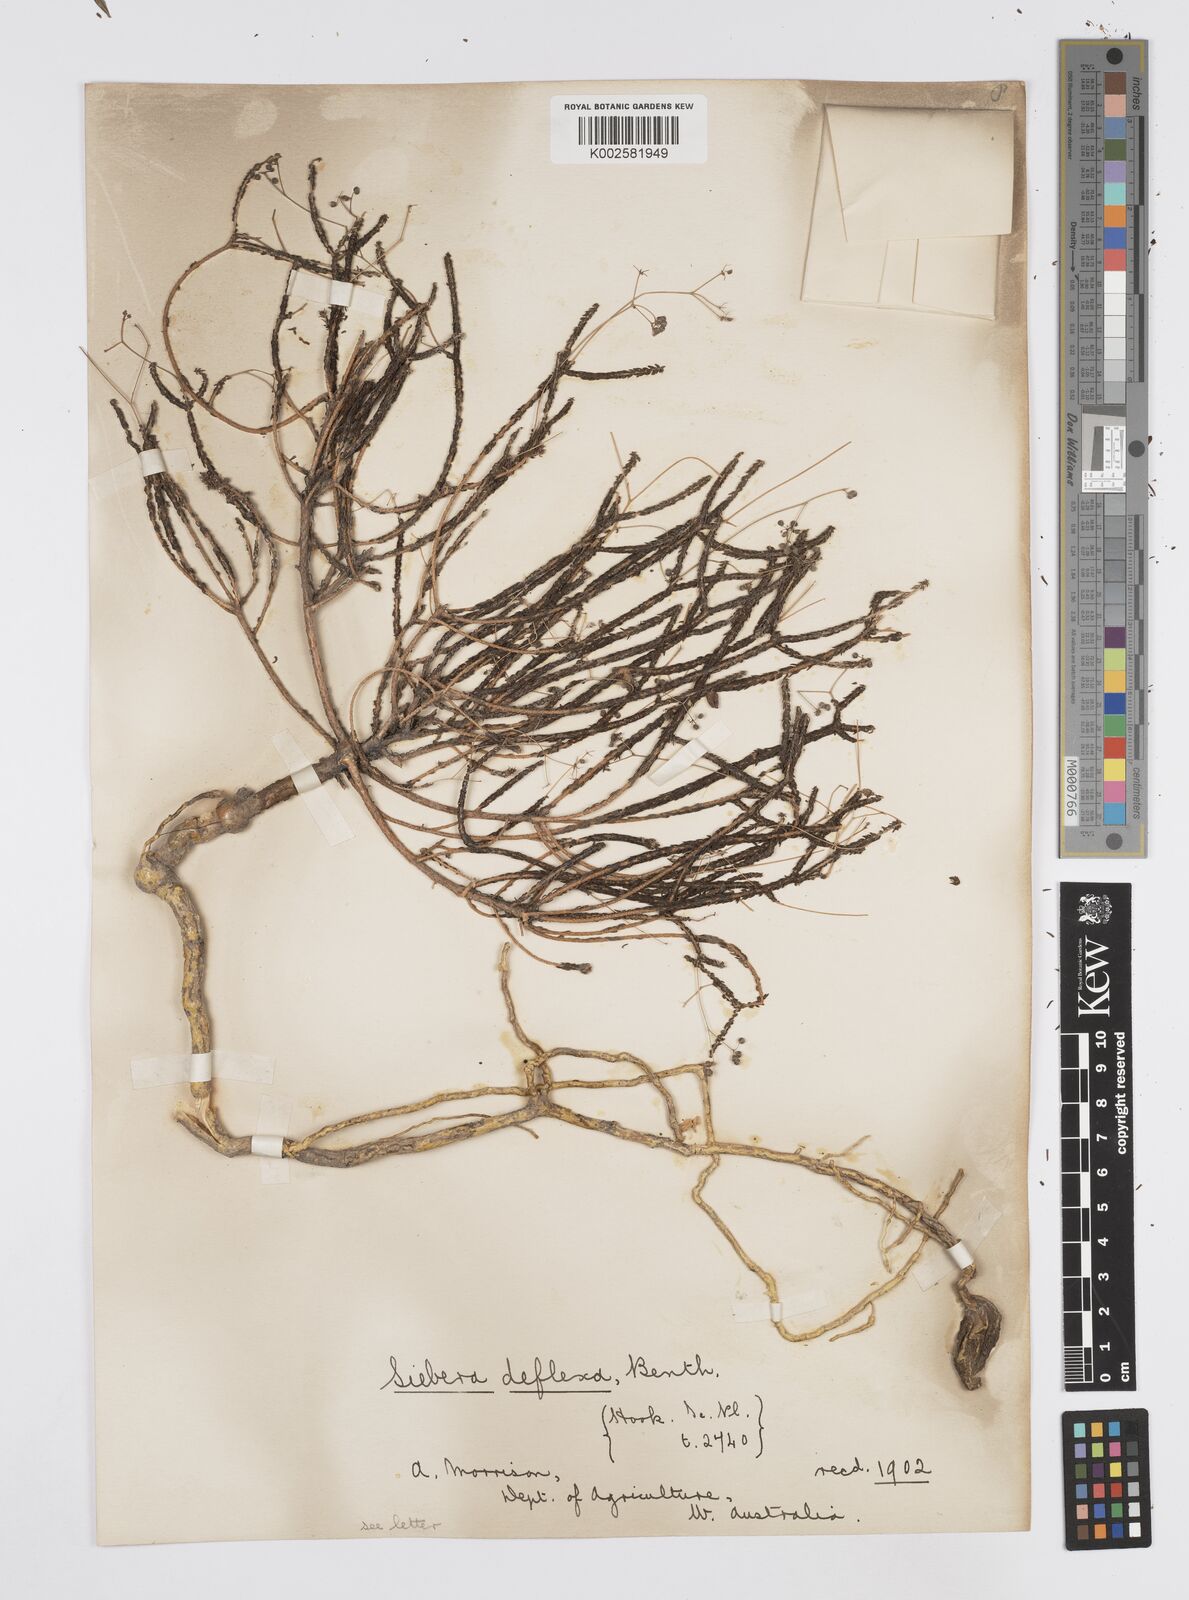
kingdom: Plantae
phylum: Tracheophyta
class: Magnoliopsida
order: Apiales
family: Apiaceae
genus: Platysace
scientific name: Platysace deflexa
